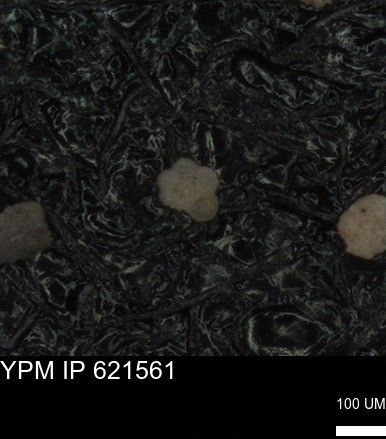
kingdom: Chromista
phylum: Foraminifera
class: Globothalamea
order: Rotaliida
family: Rugoglobigerinidae
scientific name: Rugoglobigerinidae
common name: forams
